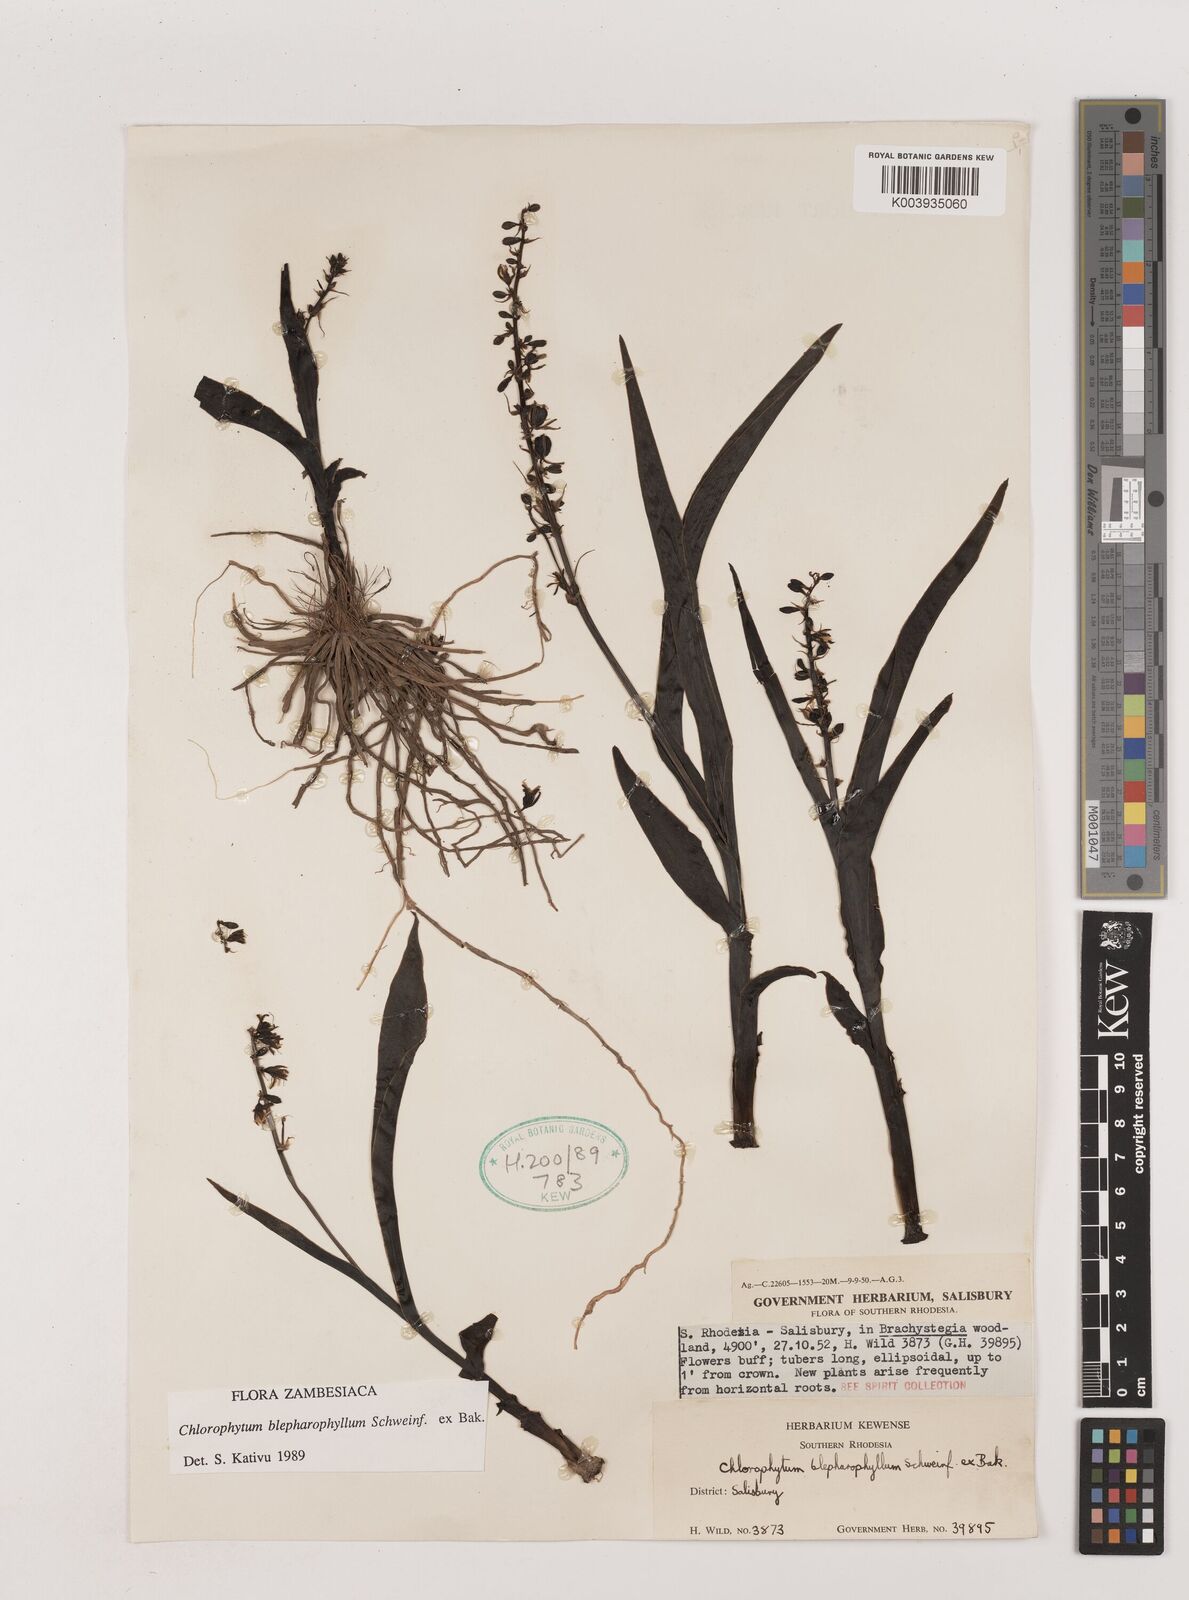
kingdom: Plantae
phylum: Tracheophyta
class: Liliopsida
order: Asparagales
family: Asparagaceae
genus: Chlorophytum
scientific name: Chlorophytum blepharophyllum
